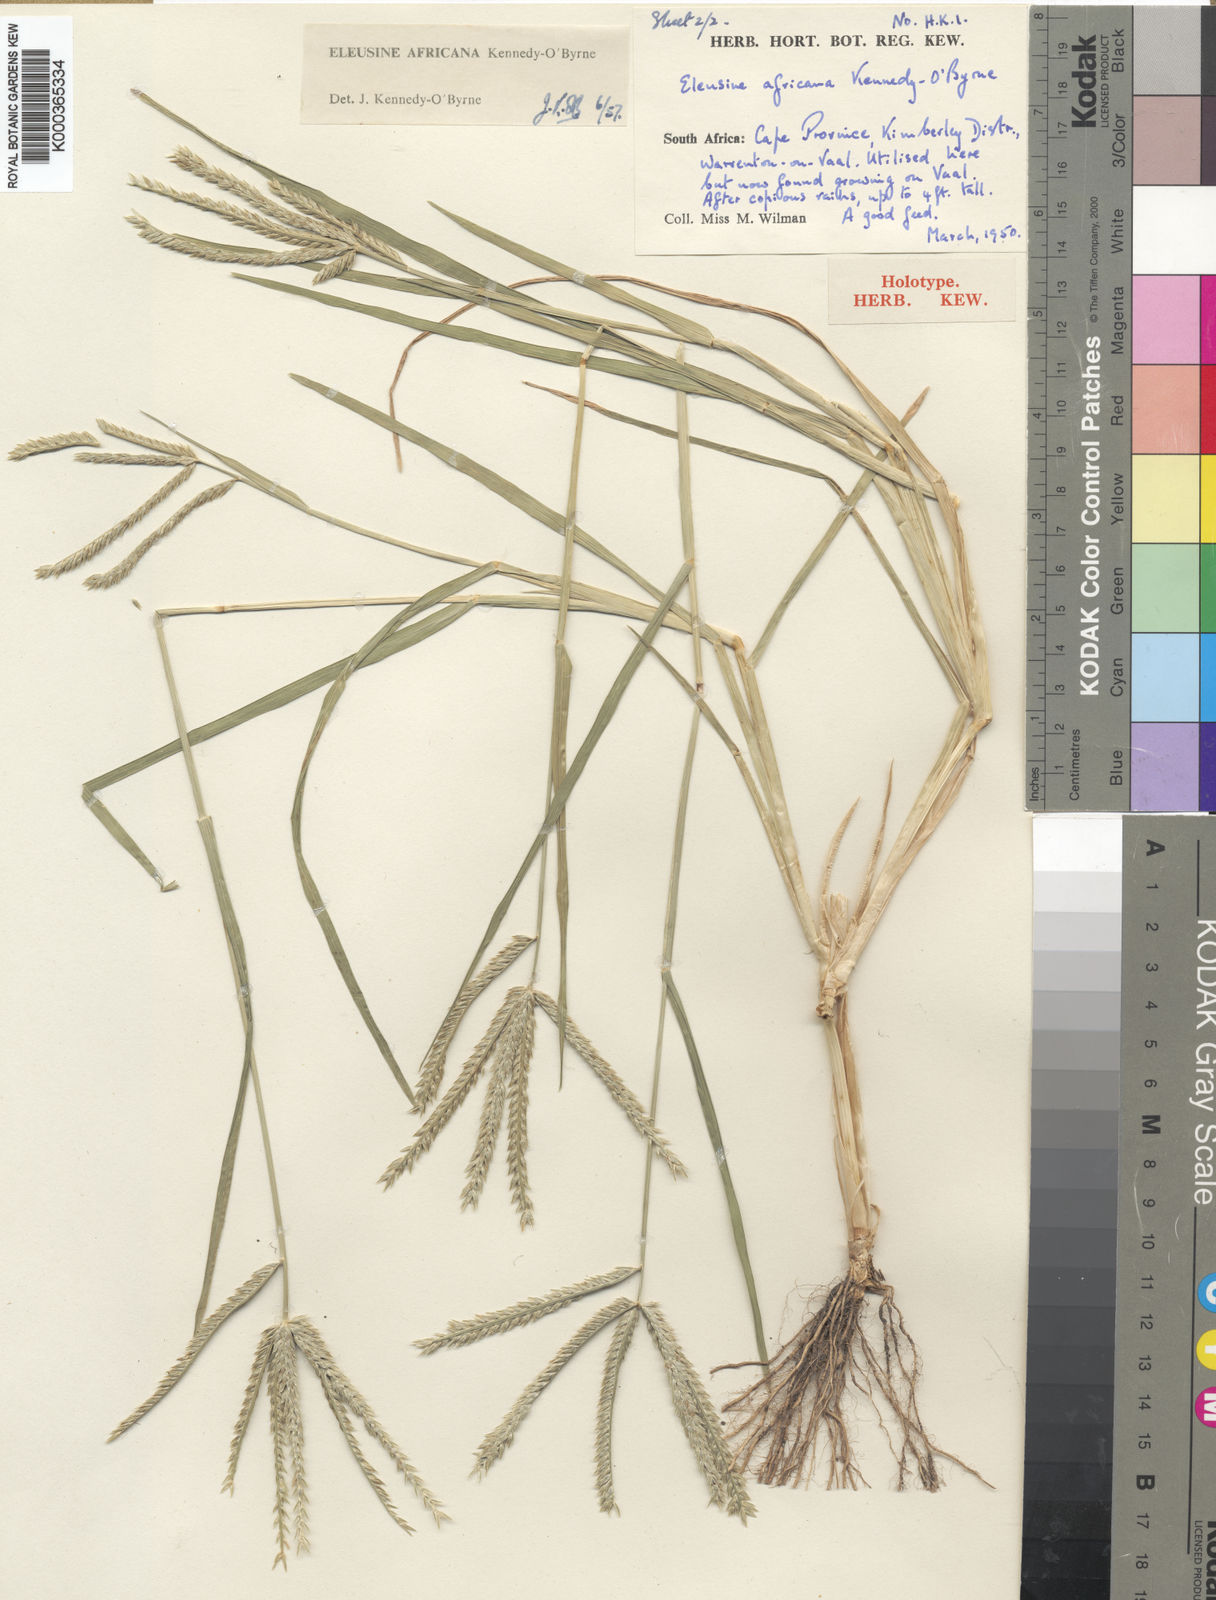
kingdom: Plantae
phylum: Tracheophyta
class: Liliopsida
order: Poales
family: Poaceae
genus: Eleusine
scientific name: Eleusine africana
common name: Wild african finger millet
